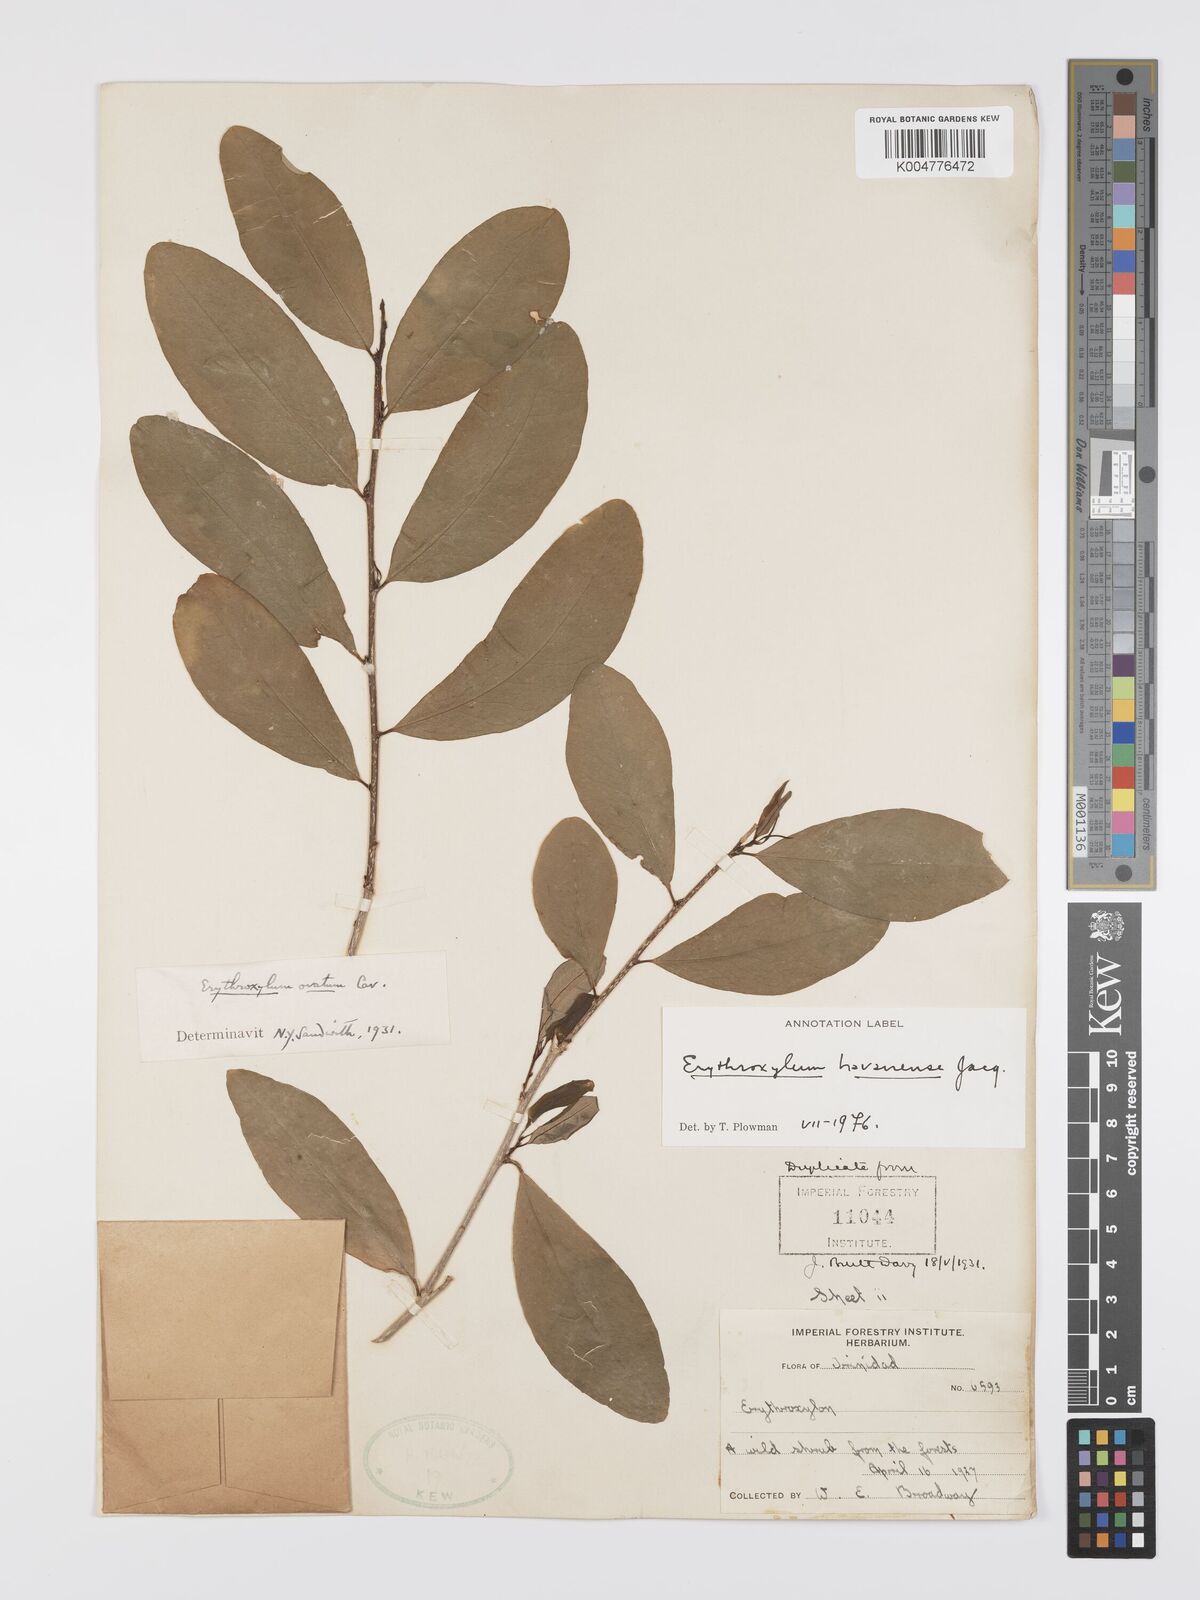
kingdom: Plantae
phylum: Tracheophyta
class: Magnoliopsida
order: Malpighiales
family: Erythroxylaceae
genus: Erythroxylum
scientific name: Erythroxylum
